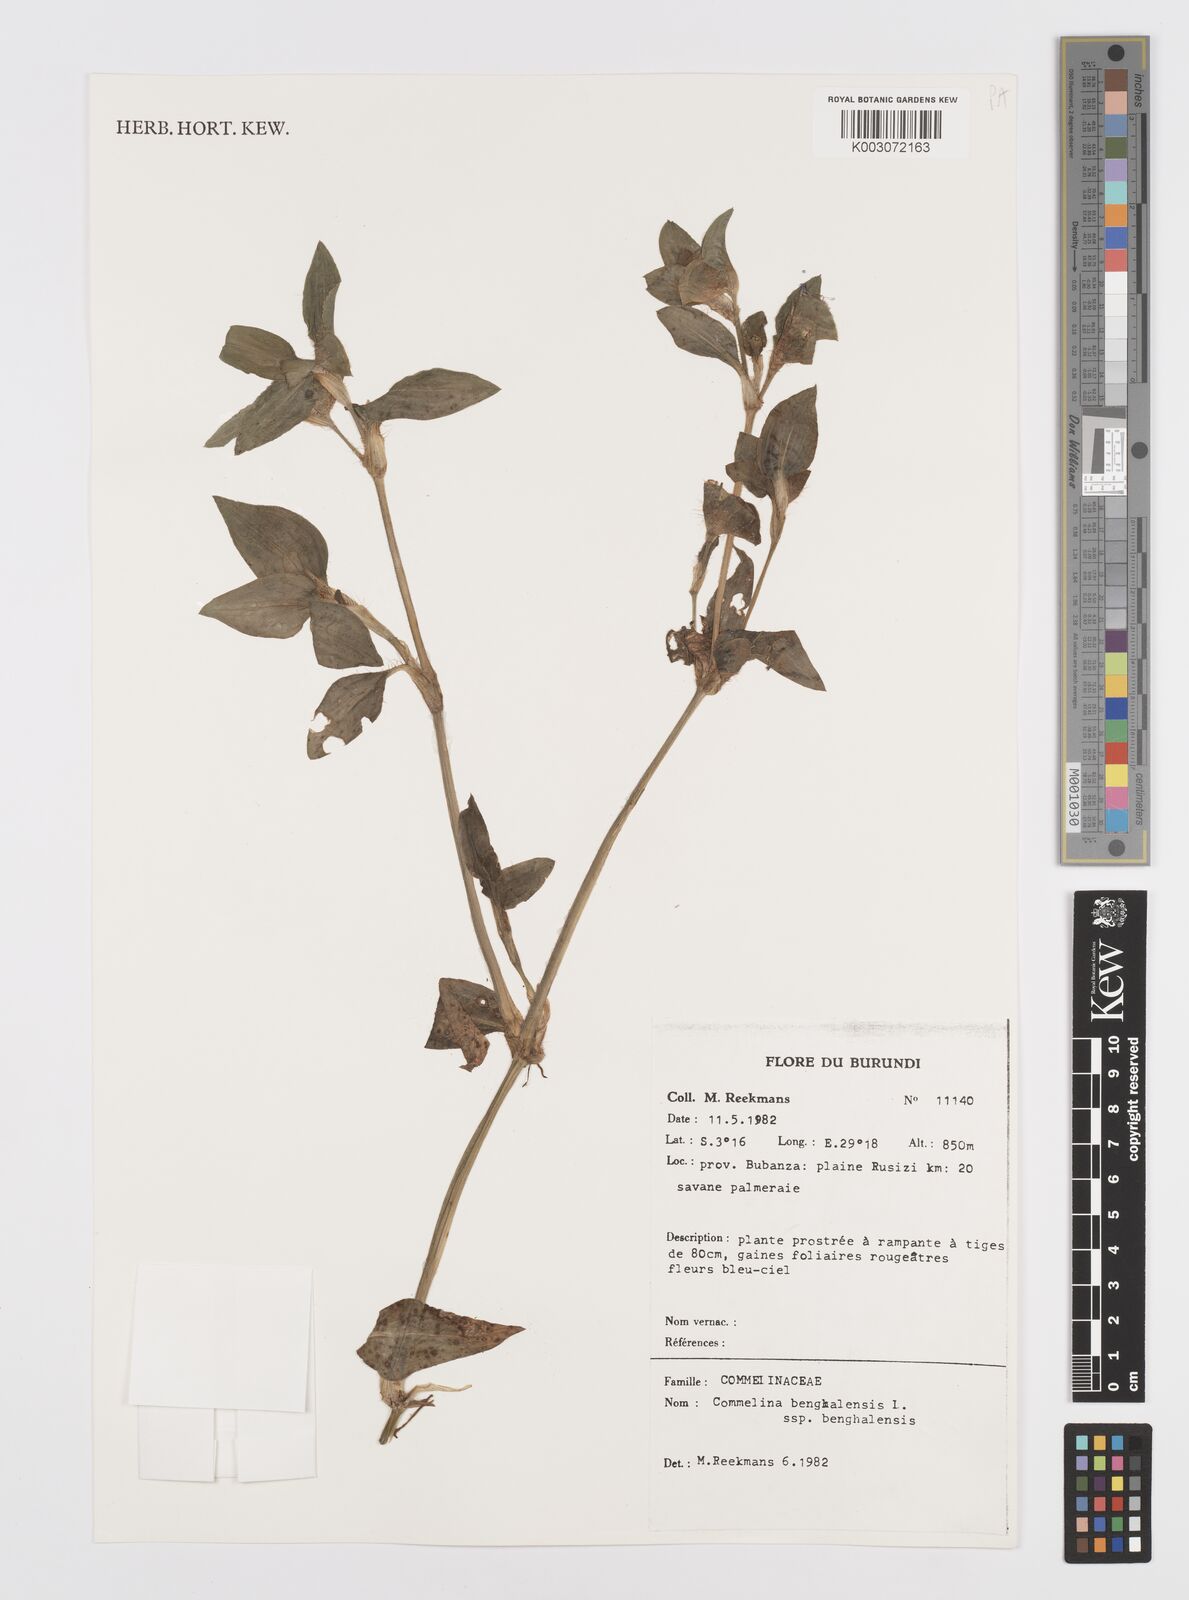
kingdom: Plantae
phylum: Tracheophyta
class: Liliopsida
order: Commelinales
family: Commelinaceae
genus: Commelina
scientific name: Commelina benghalensis
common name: Jio
